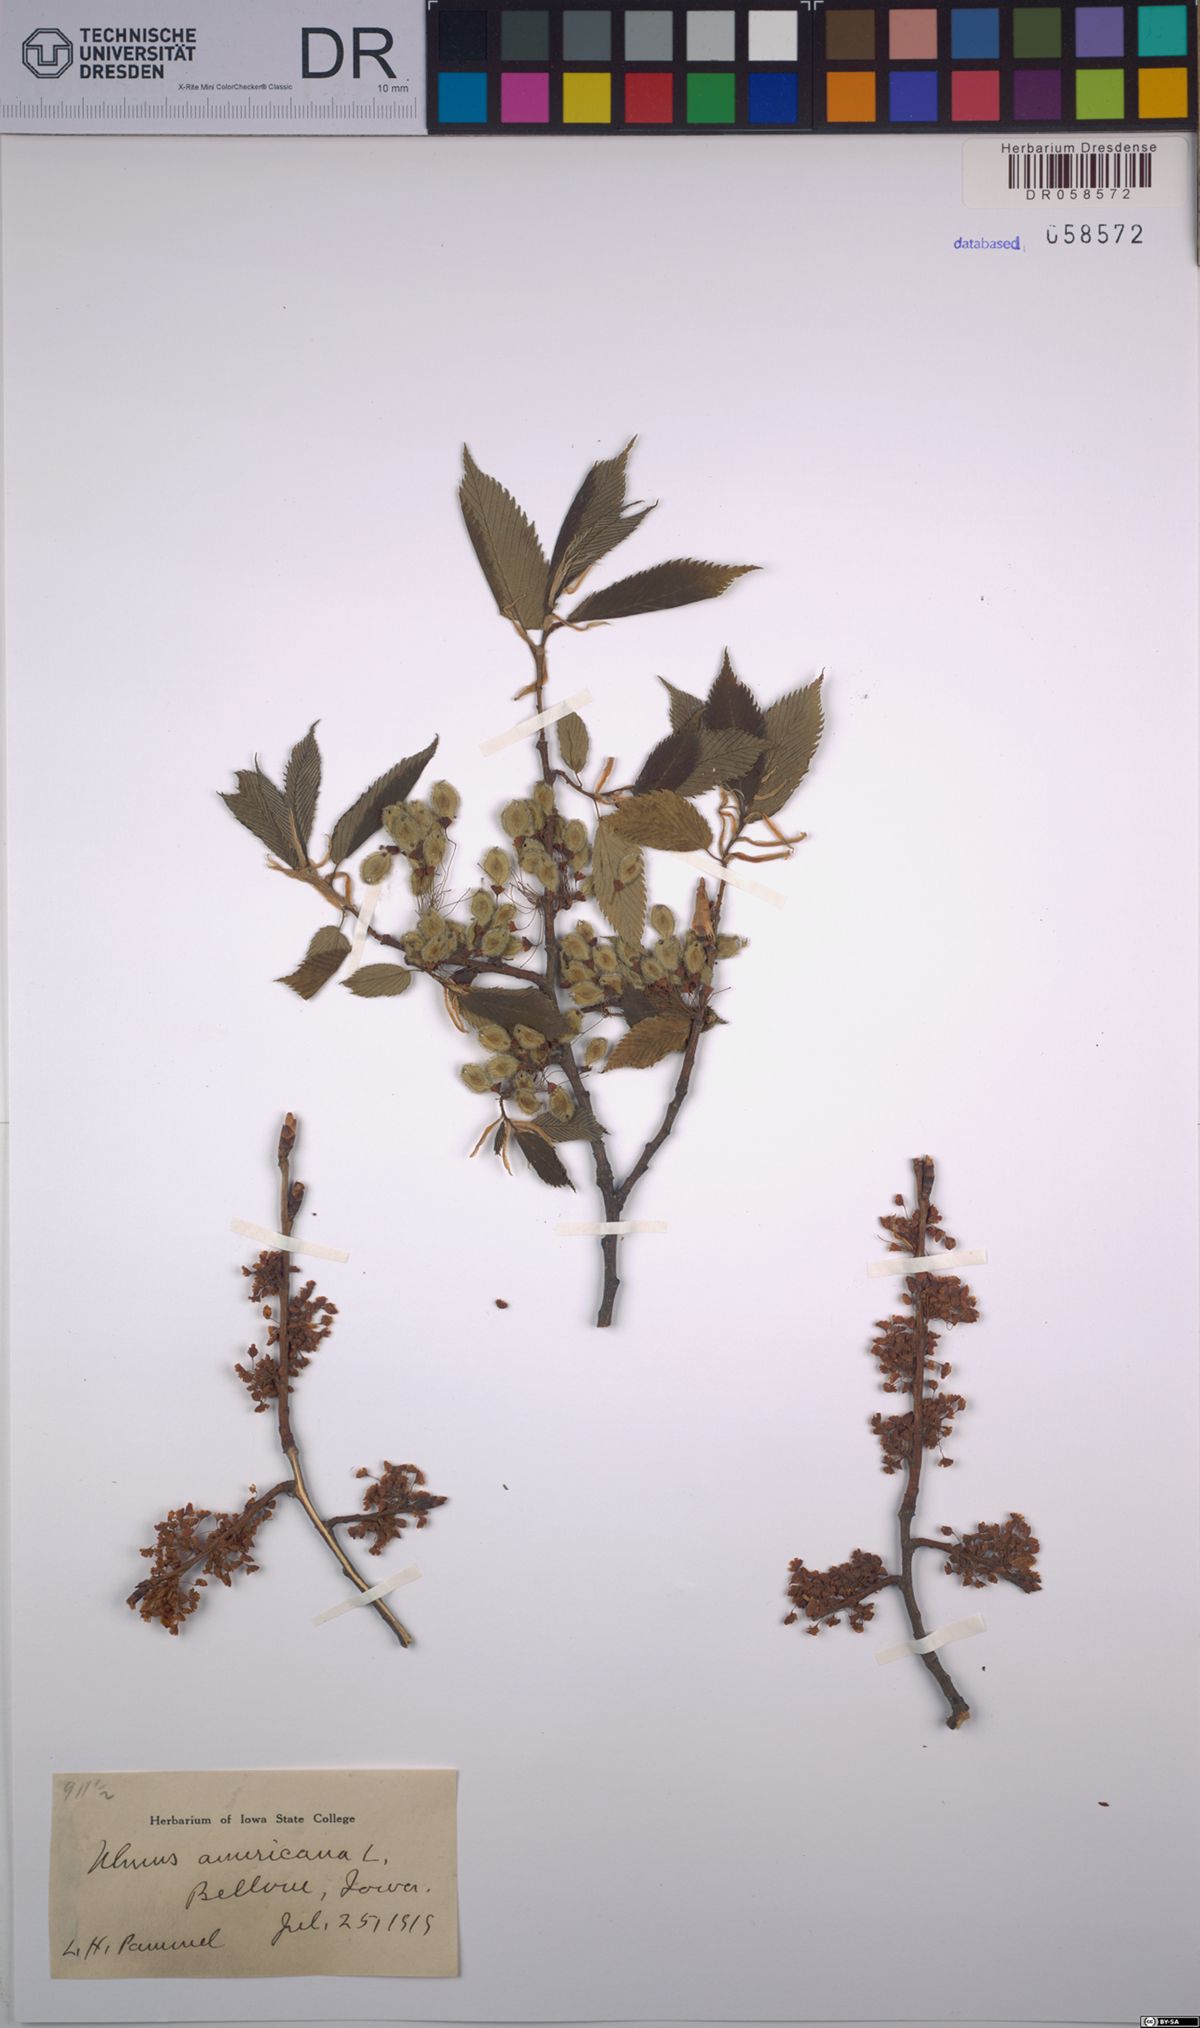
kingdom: Plantae
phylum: Tracheophyta
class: Magnoliopsida
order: Rosales
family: Ulmaceae
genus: Ulmus
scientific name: Ulmus americana
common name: American elm
